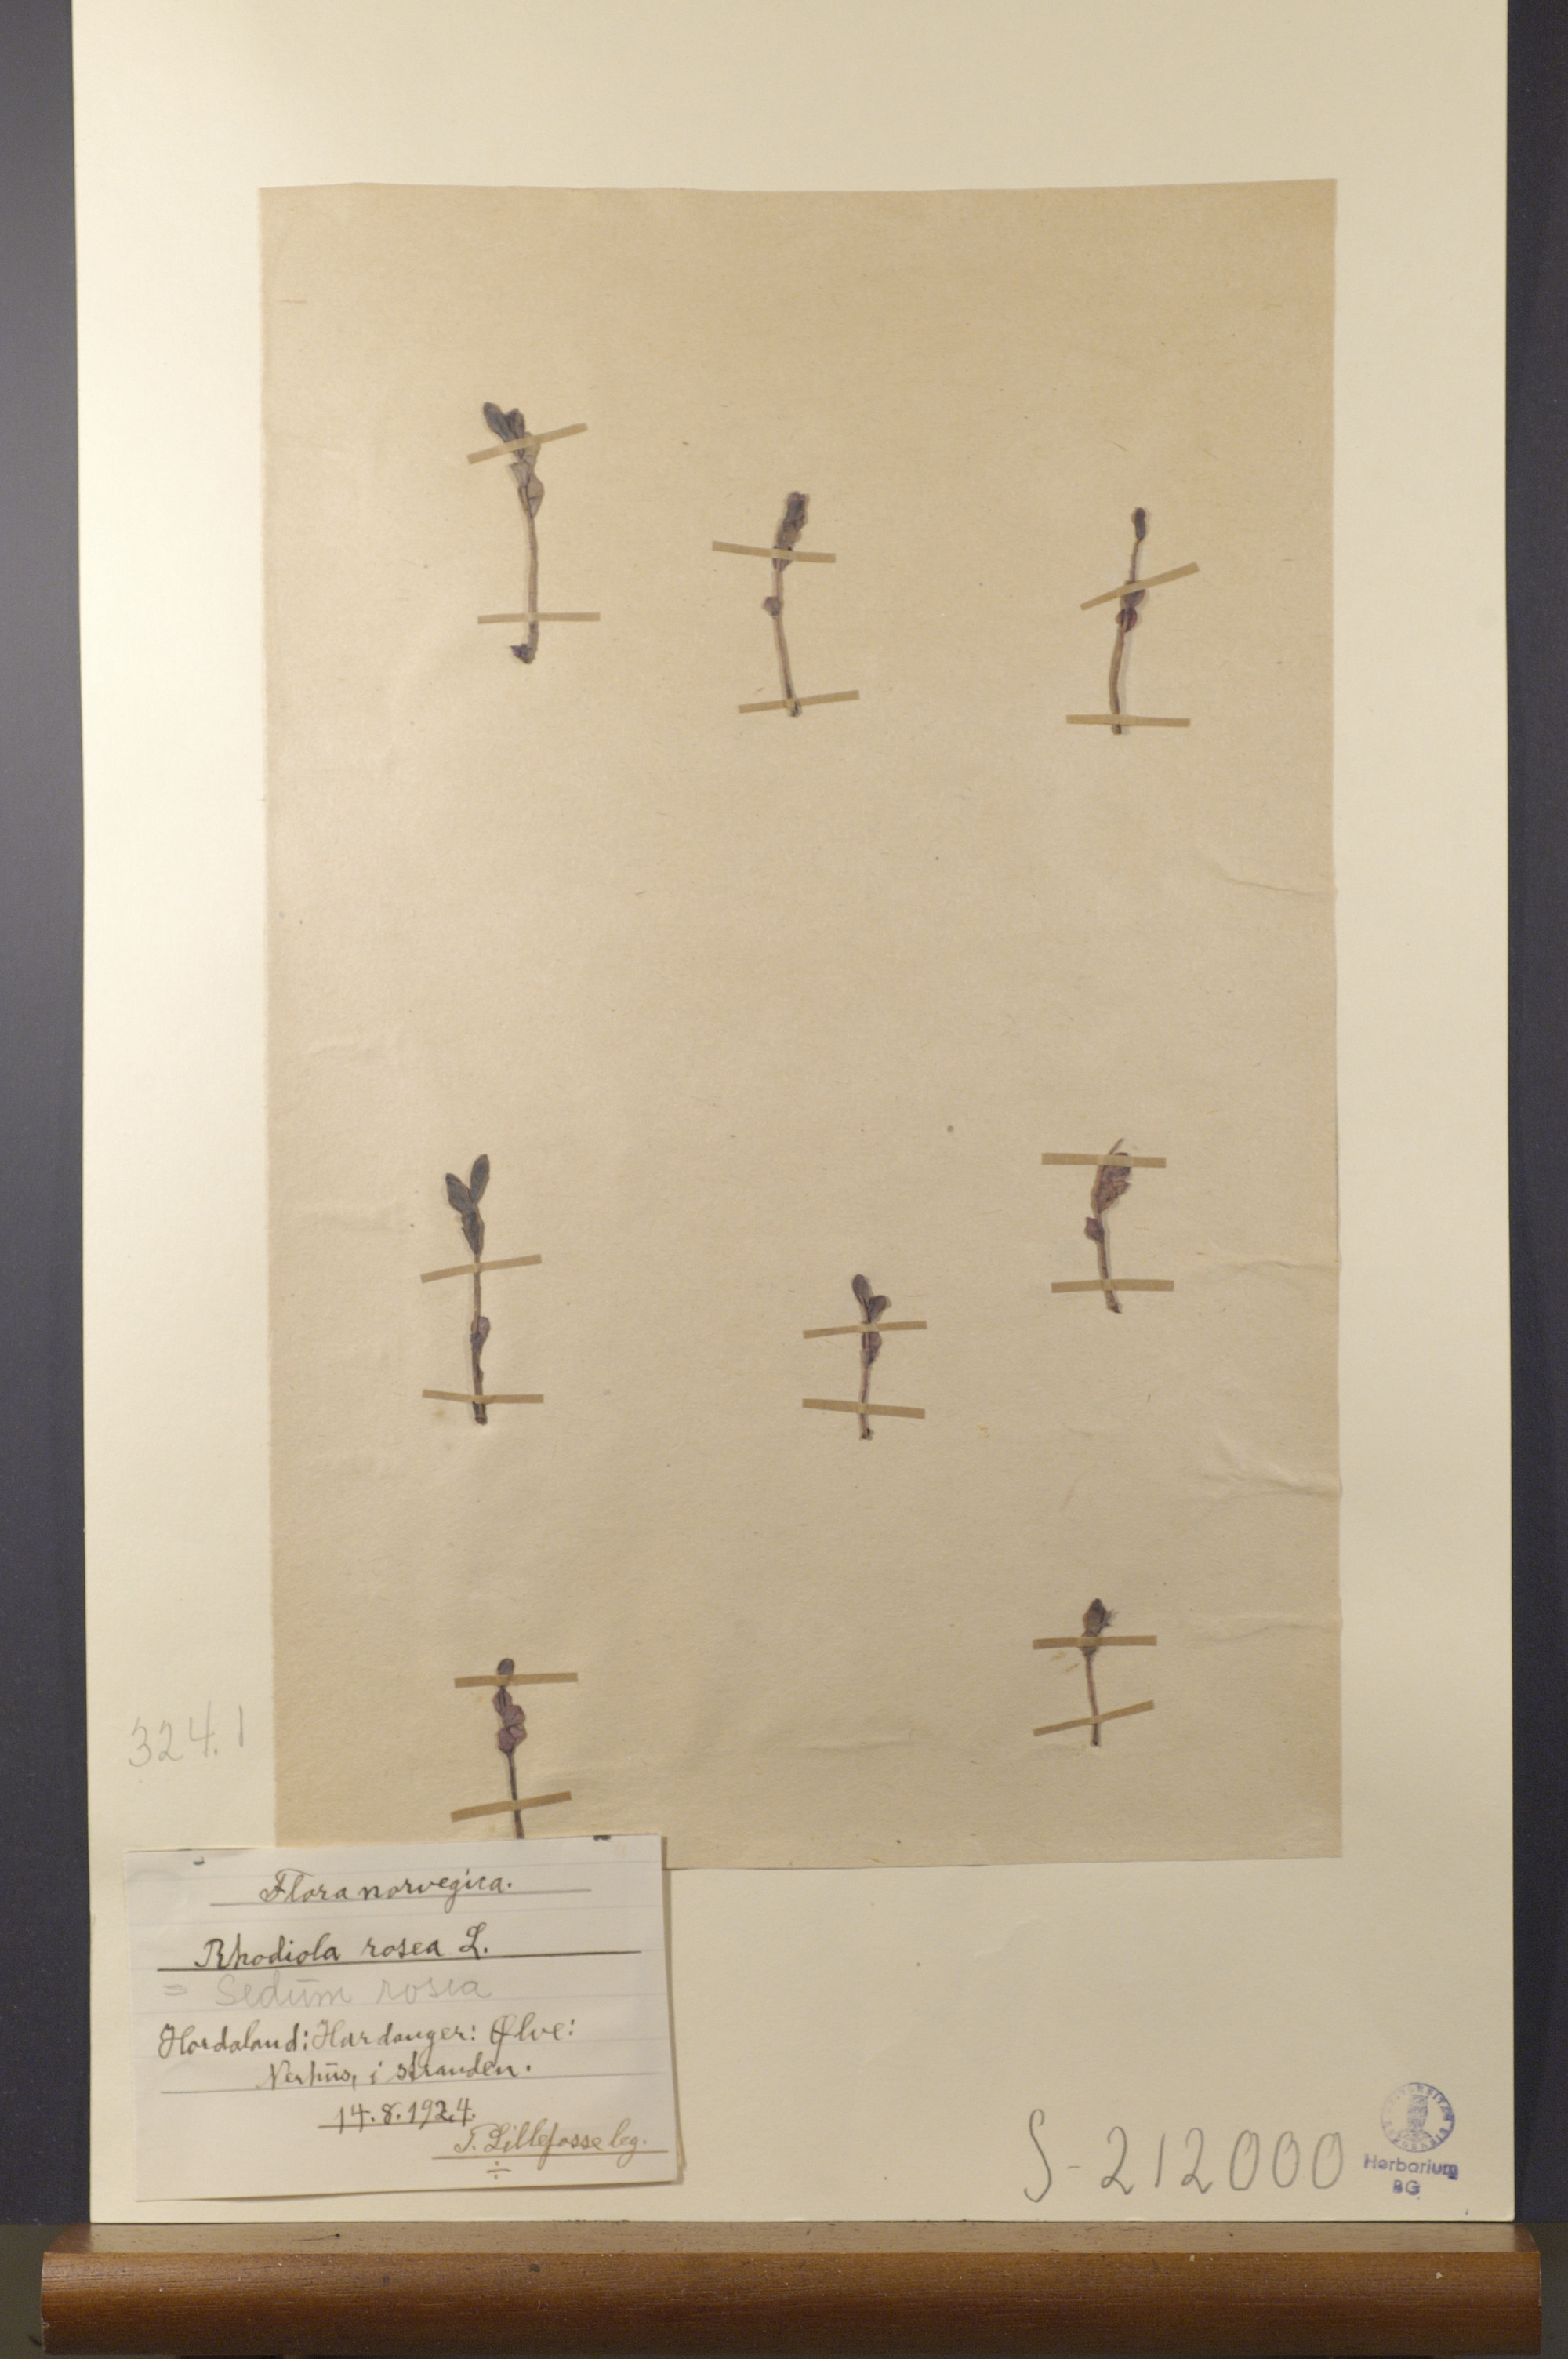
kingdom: Plantae
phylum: Tracheophyta
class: Magnoliopsida
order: Saxifragales
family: Crassulaceae
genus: Rhodiola
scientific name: Rhodiola rosea
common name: Roseroot
